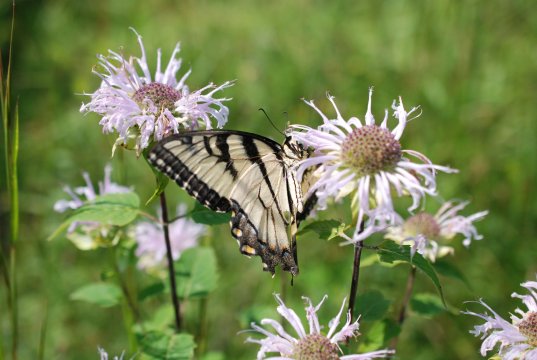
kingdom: Animalia
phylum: Arthropoda
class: Insecta
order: Lepidoptera
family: Papilionidae
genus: Pterourus
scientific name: Pterourus glaucus
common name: Eastern Tiger Swallowtail
